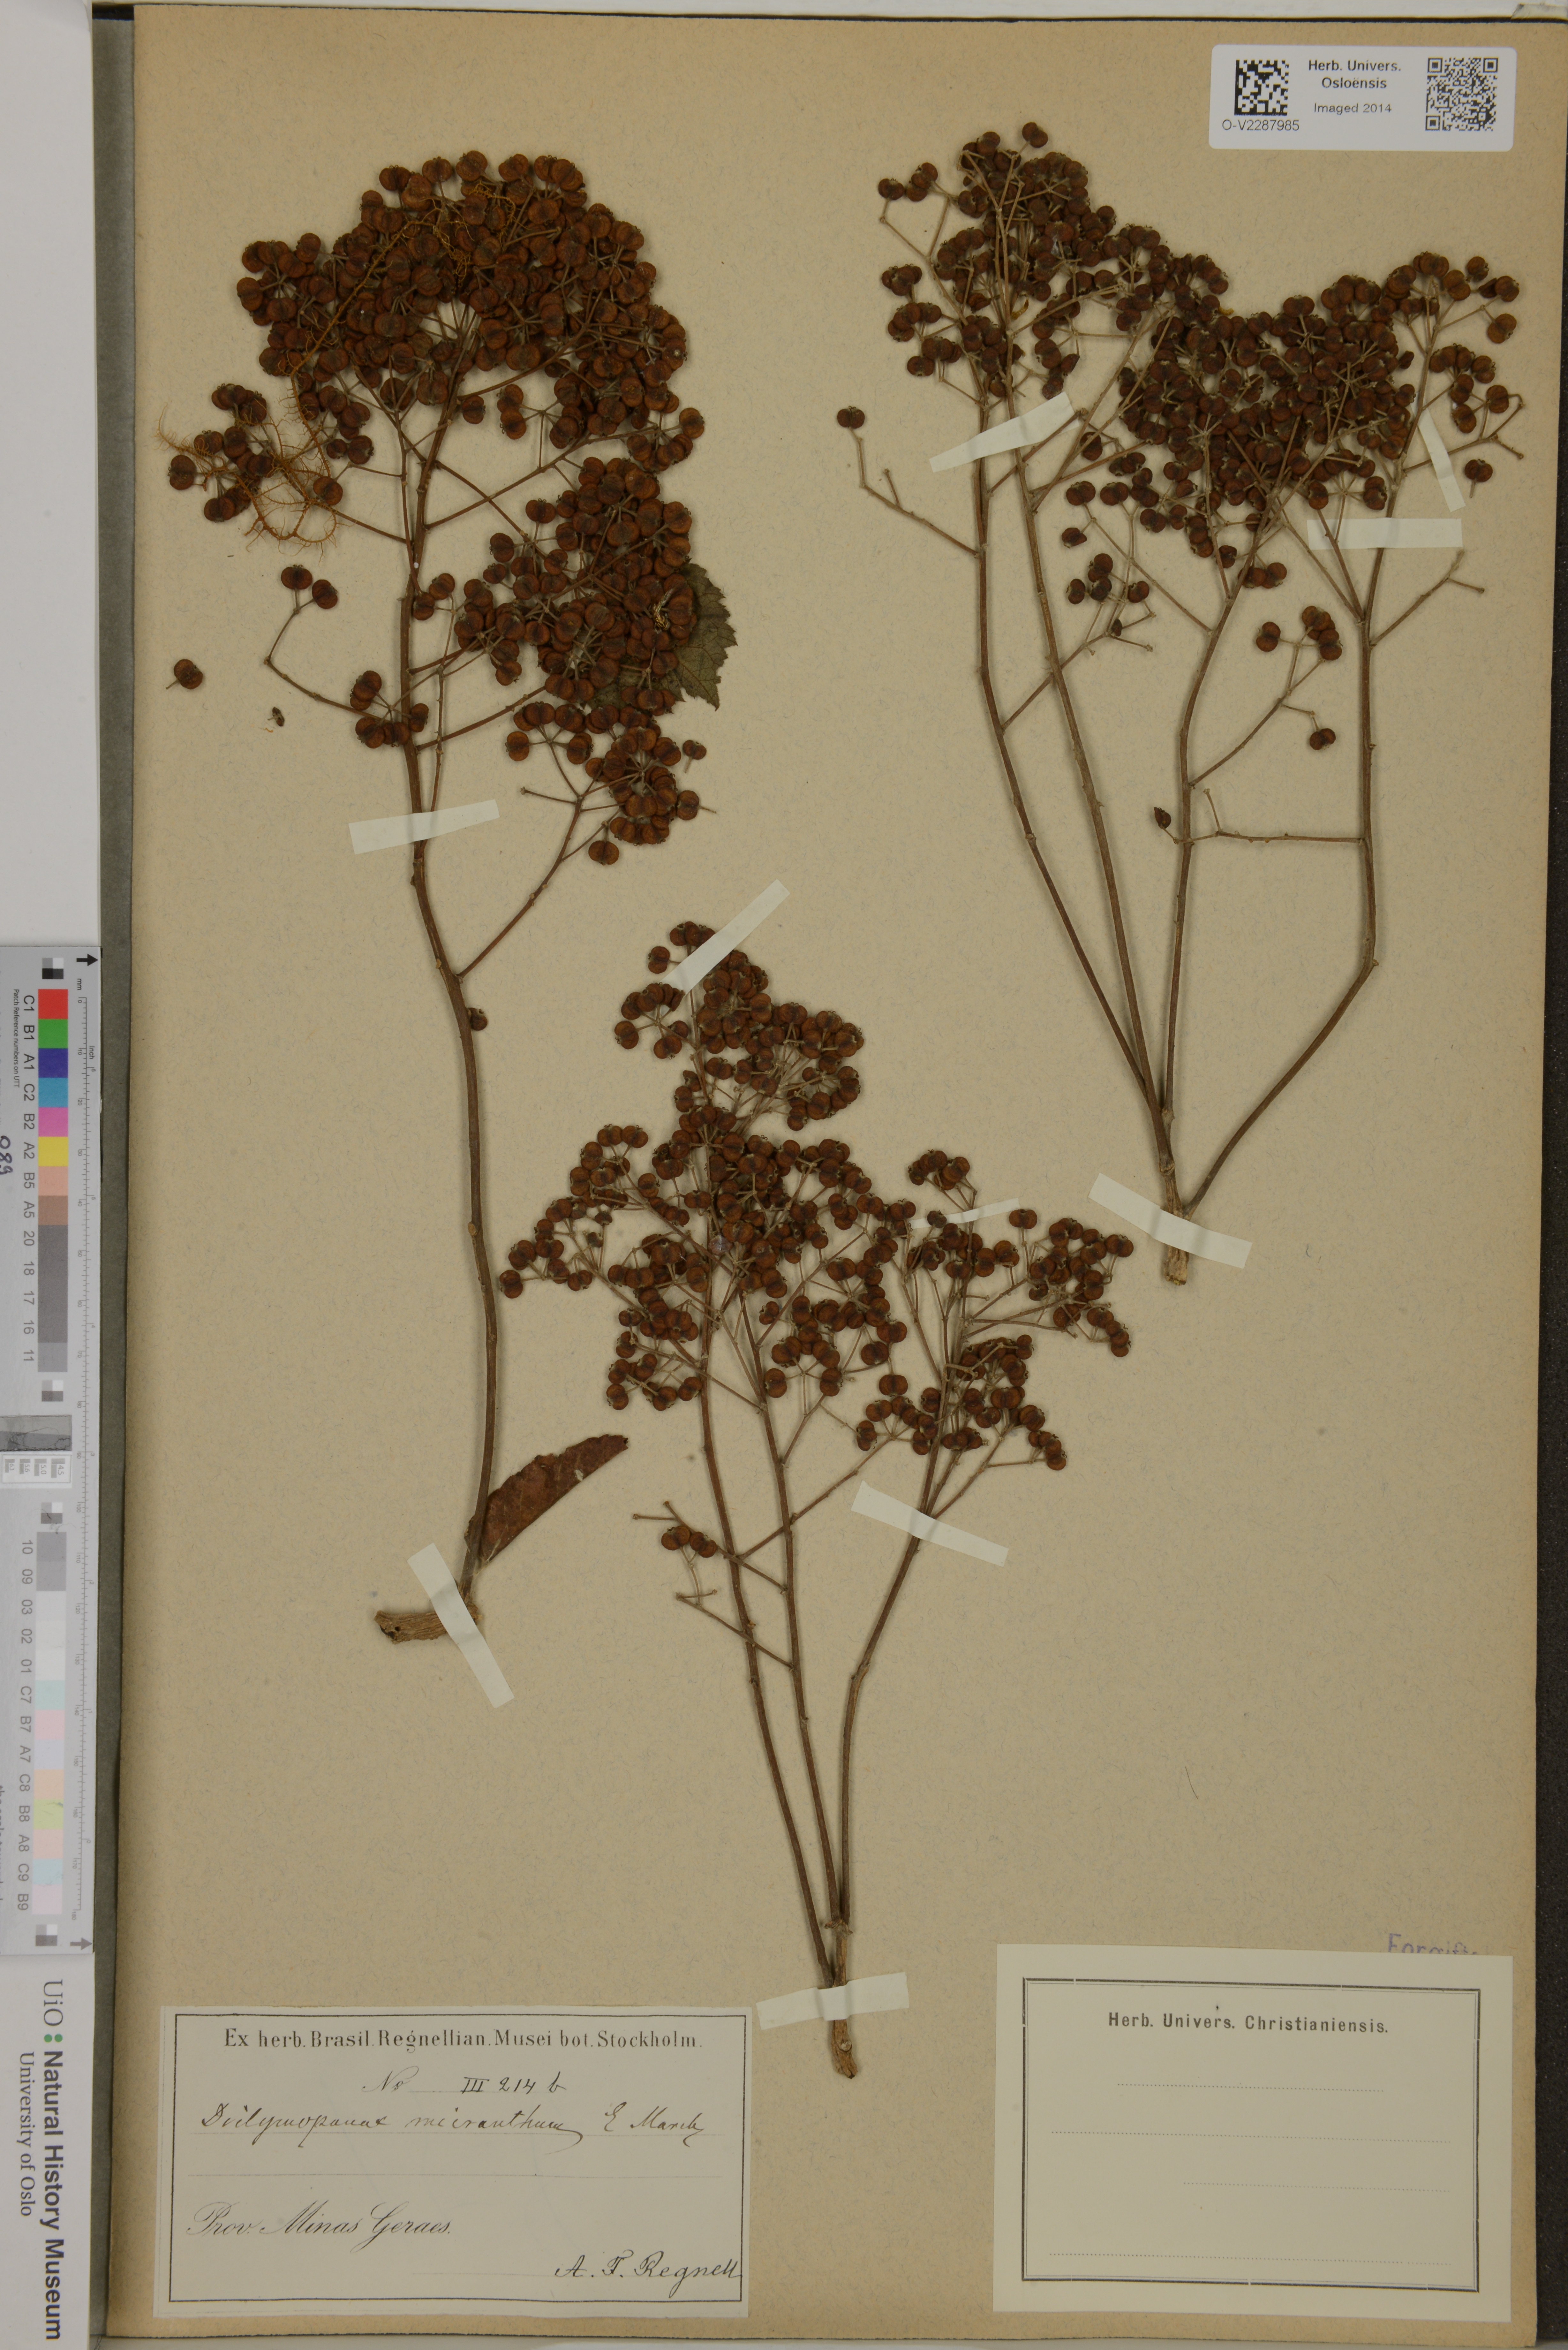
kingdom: Plantae
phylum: Tracheophyta
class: Magnoliopsida
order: Apiales
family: Araliaceae
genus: Didymopanax
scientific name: Didymopanax calvus
